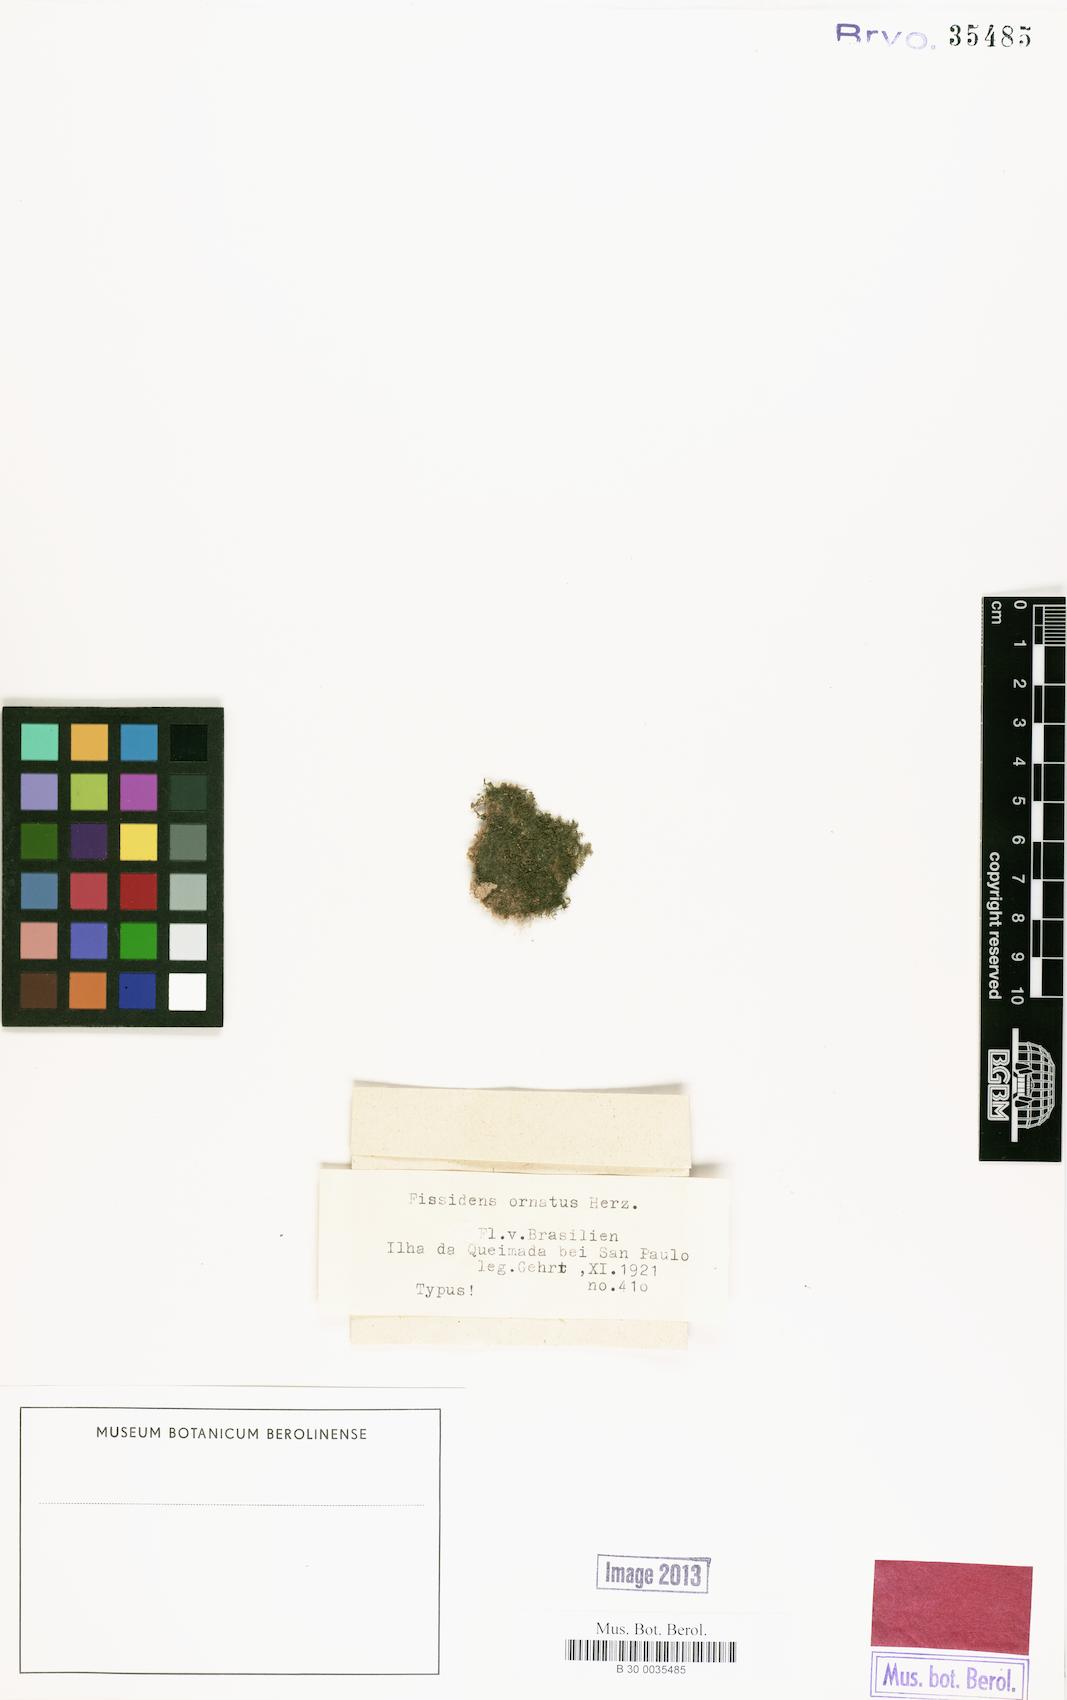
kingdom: Plantae
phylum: Bryophyta
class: Bryopsida
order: Dicranales
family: Fissidentaceae
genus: Fissidens
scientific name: Fissidens ornatus
